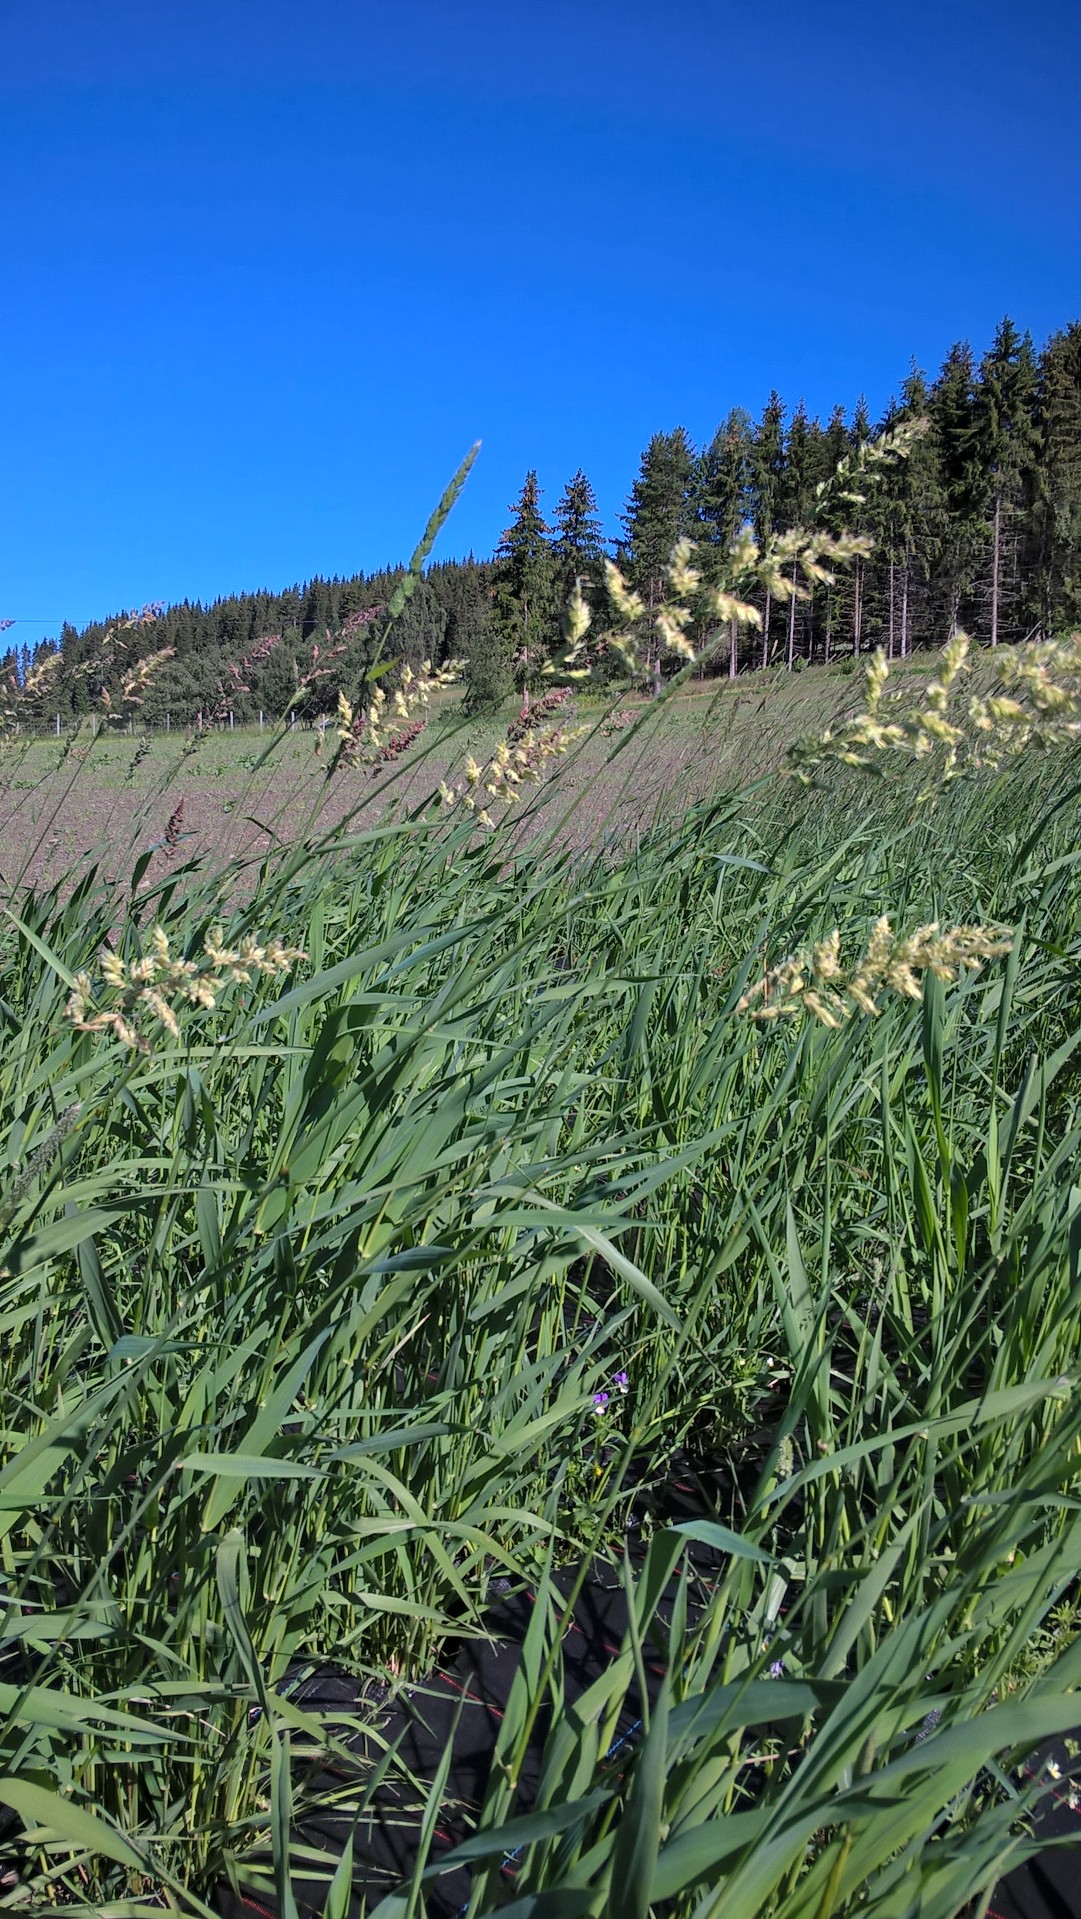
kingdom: Plantae
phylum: Tracheophyta
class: Liliopsida
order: Poales
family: Poaceae
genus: Phalaris
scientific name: Phalaris arundinacea
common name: Reed canary-grass
